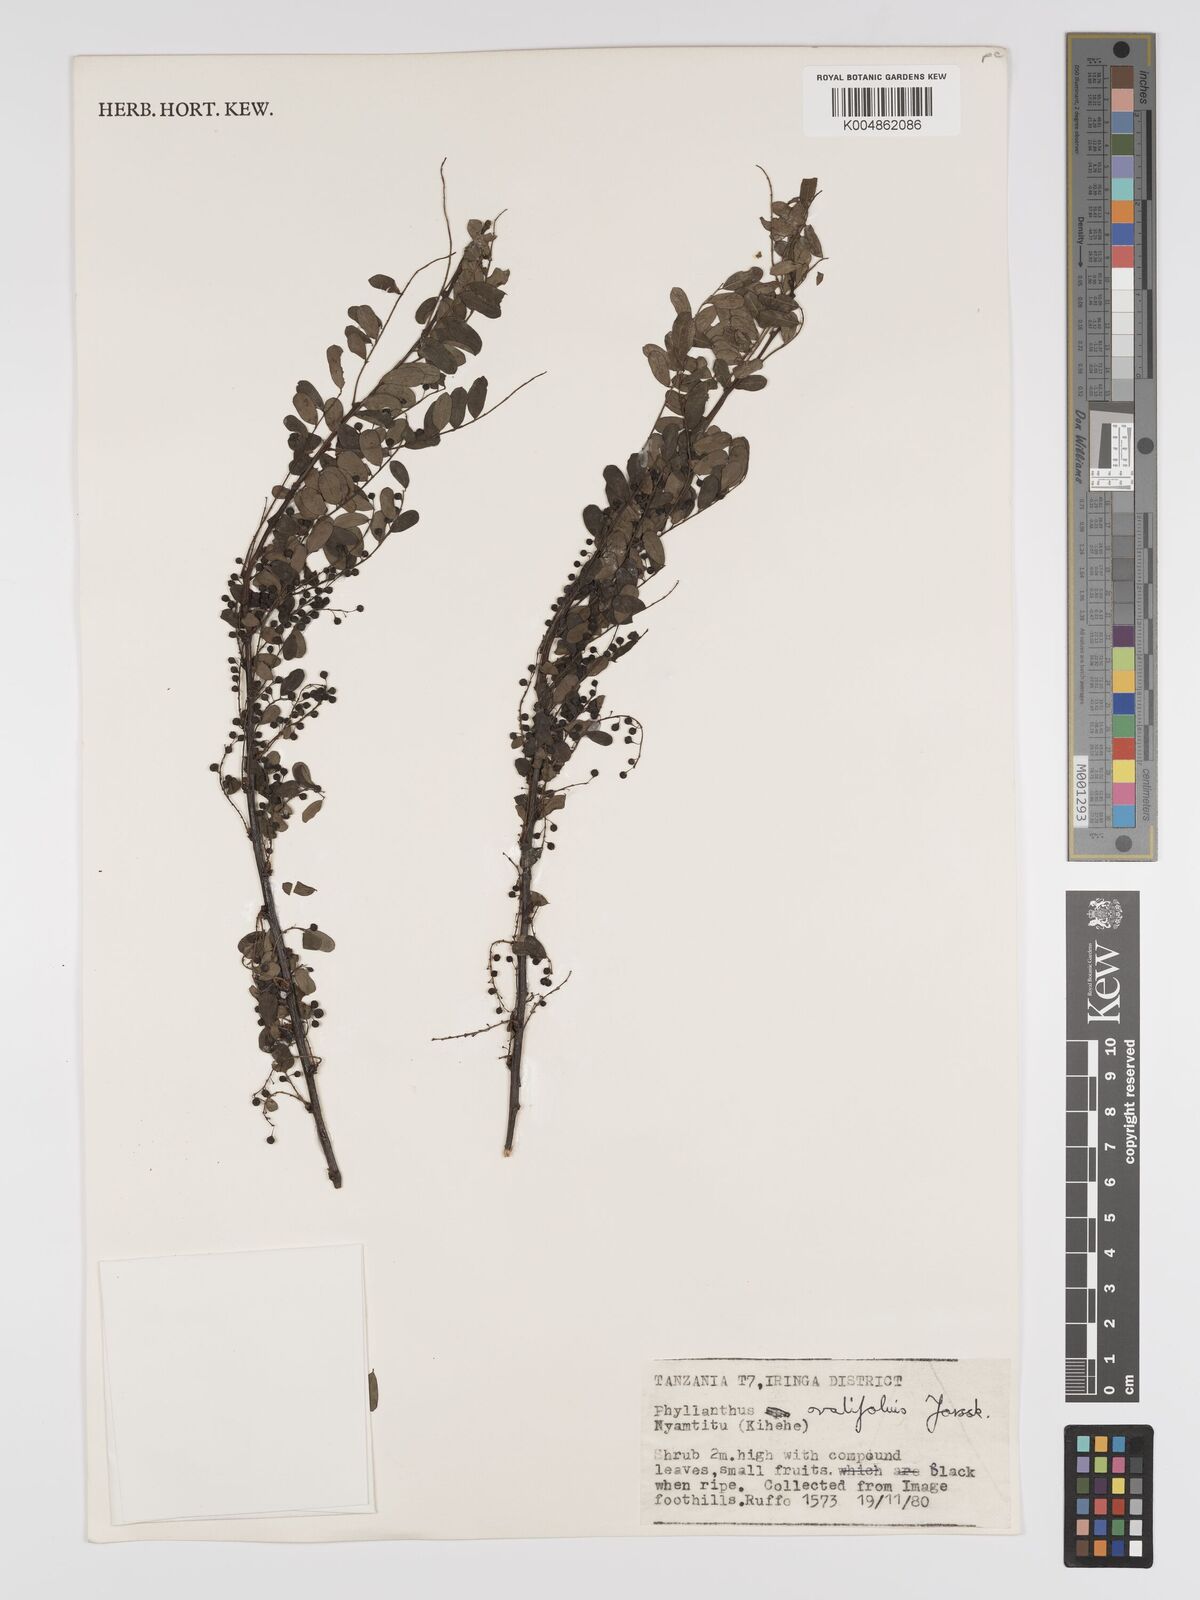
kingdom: Plantae
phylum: Tracheophyta
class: Magnoliopsida
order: Malpighiales
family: Phyllanthaceae
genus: Phyllanthus
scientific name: Phyllanthus ovalifolius
